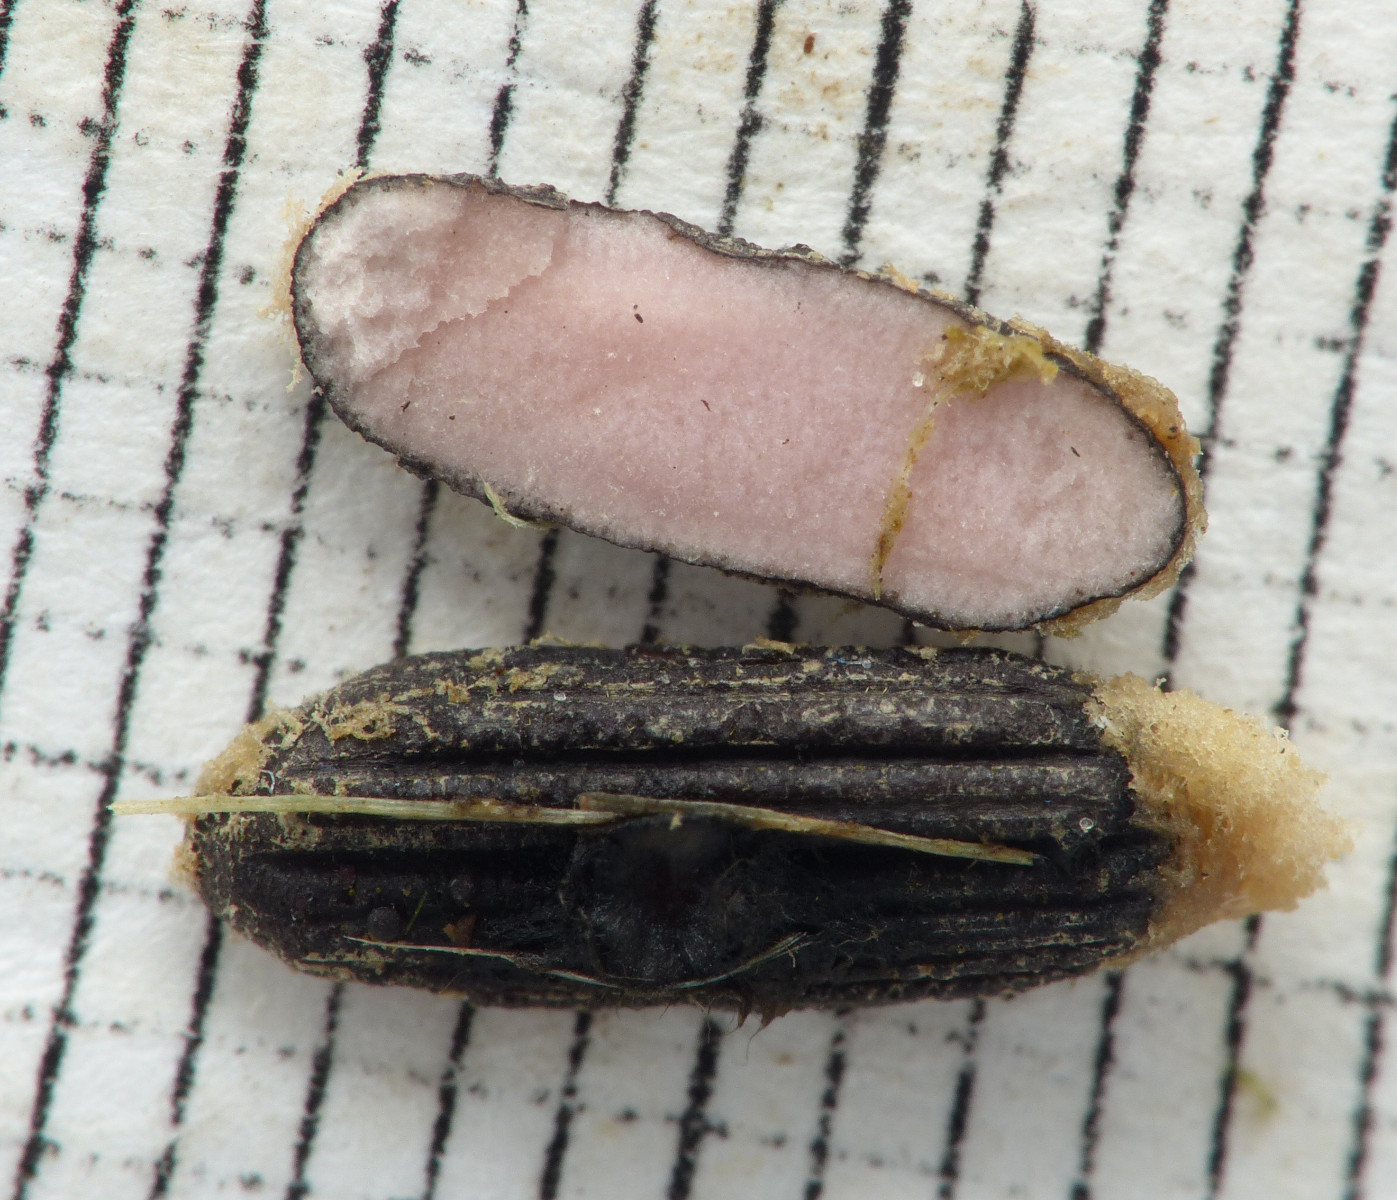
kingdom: Fungi
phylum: Ascomycota
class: Leotiomycetes
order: Helotiales
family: Sclerotiniaceae
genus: Myriosclerotinia
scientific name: Myriosclerotinia curreyana
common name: siv-knoldskive
